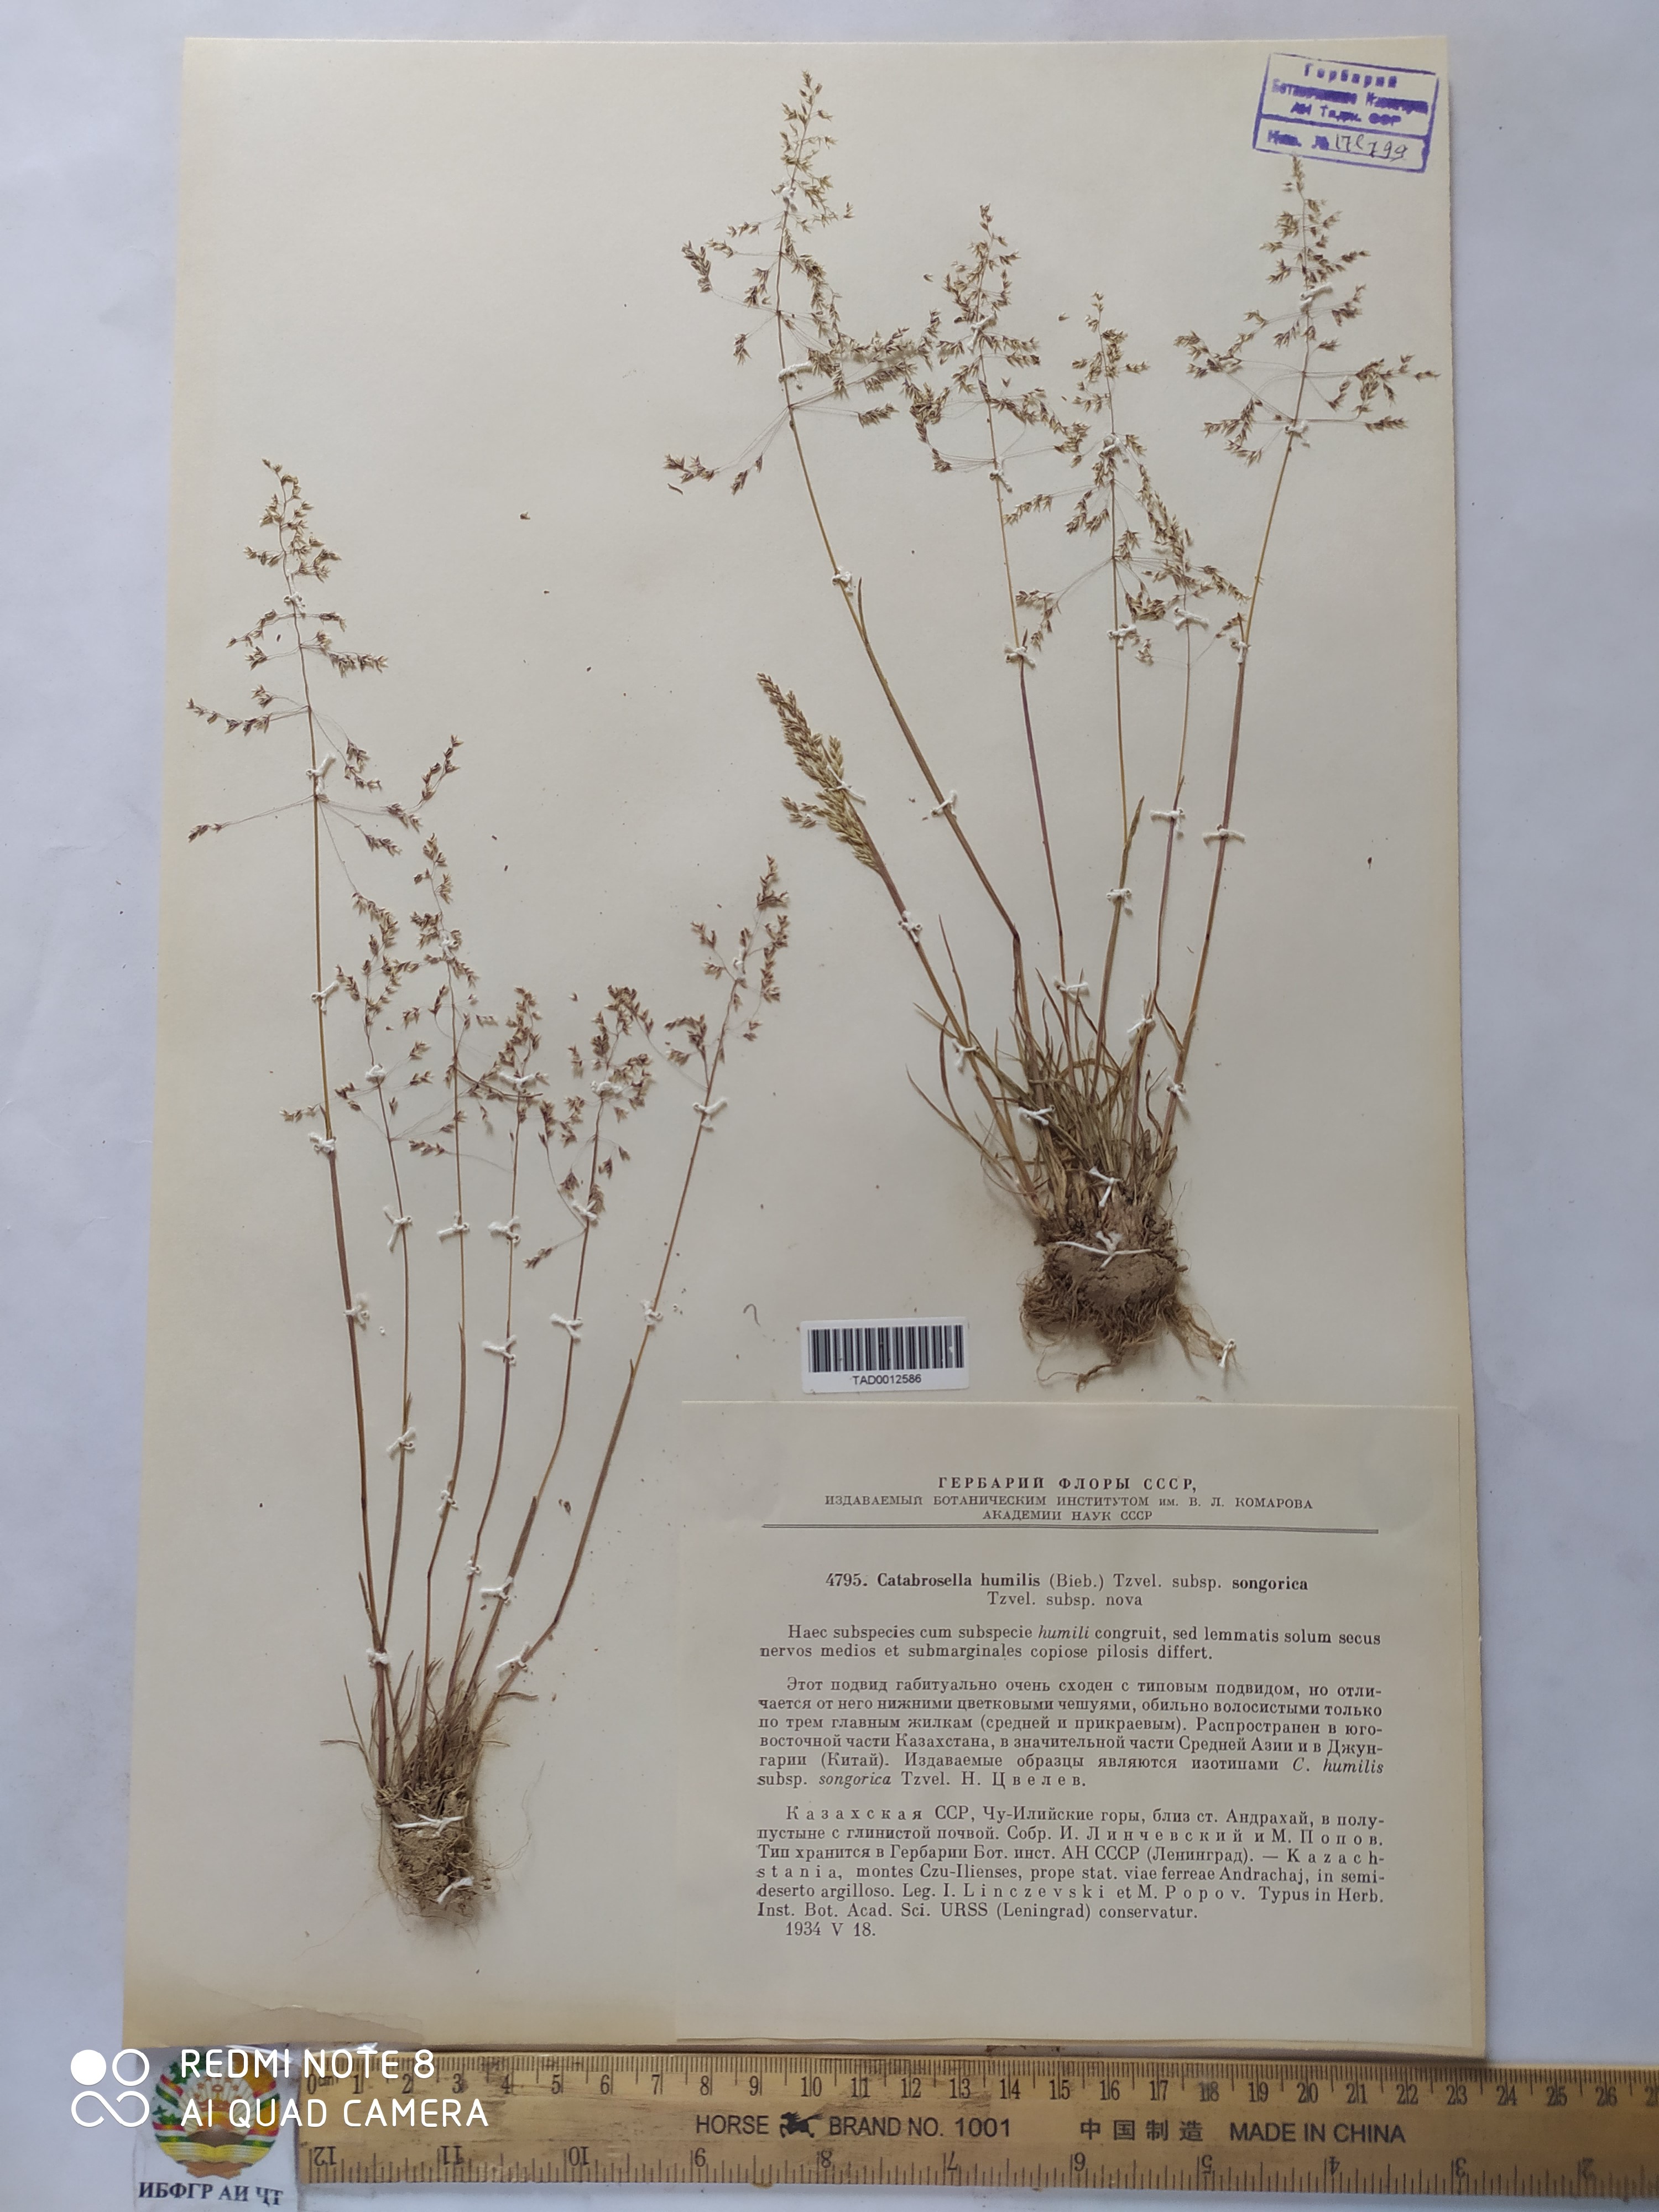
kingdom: Plantae
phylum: Tracheophyta
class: Liliopsida
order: Poales
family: Poaceae
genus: Catabrosella
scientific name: Catabrosella humilis
